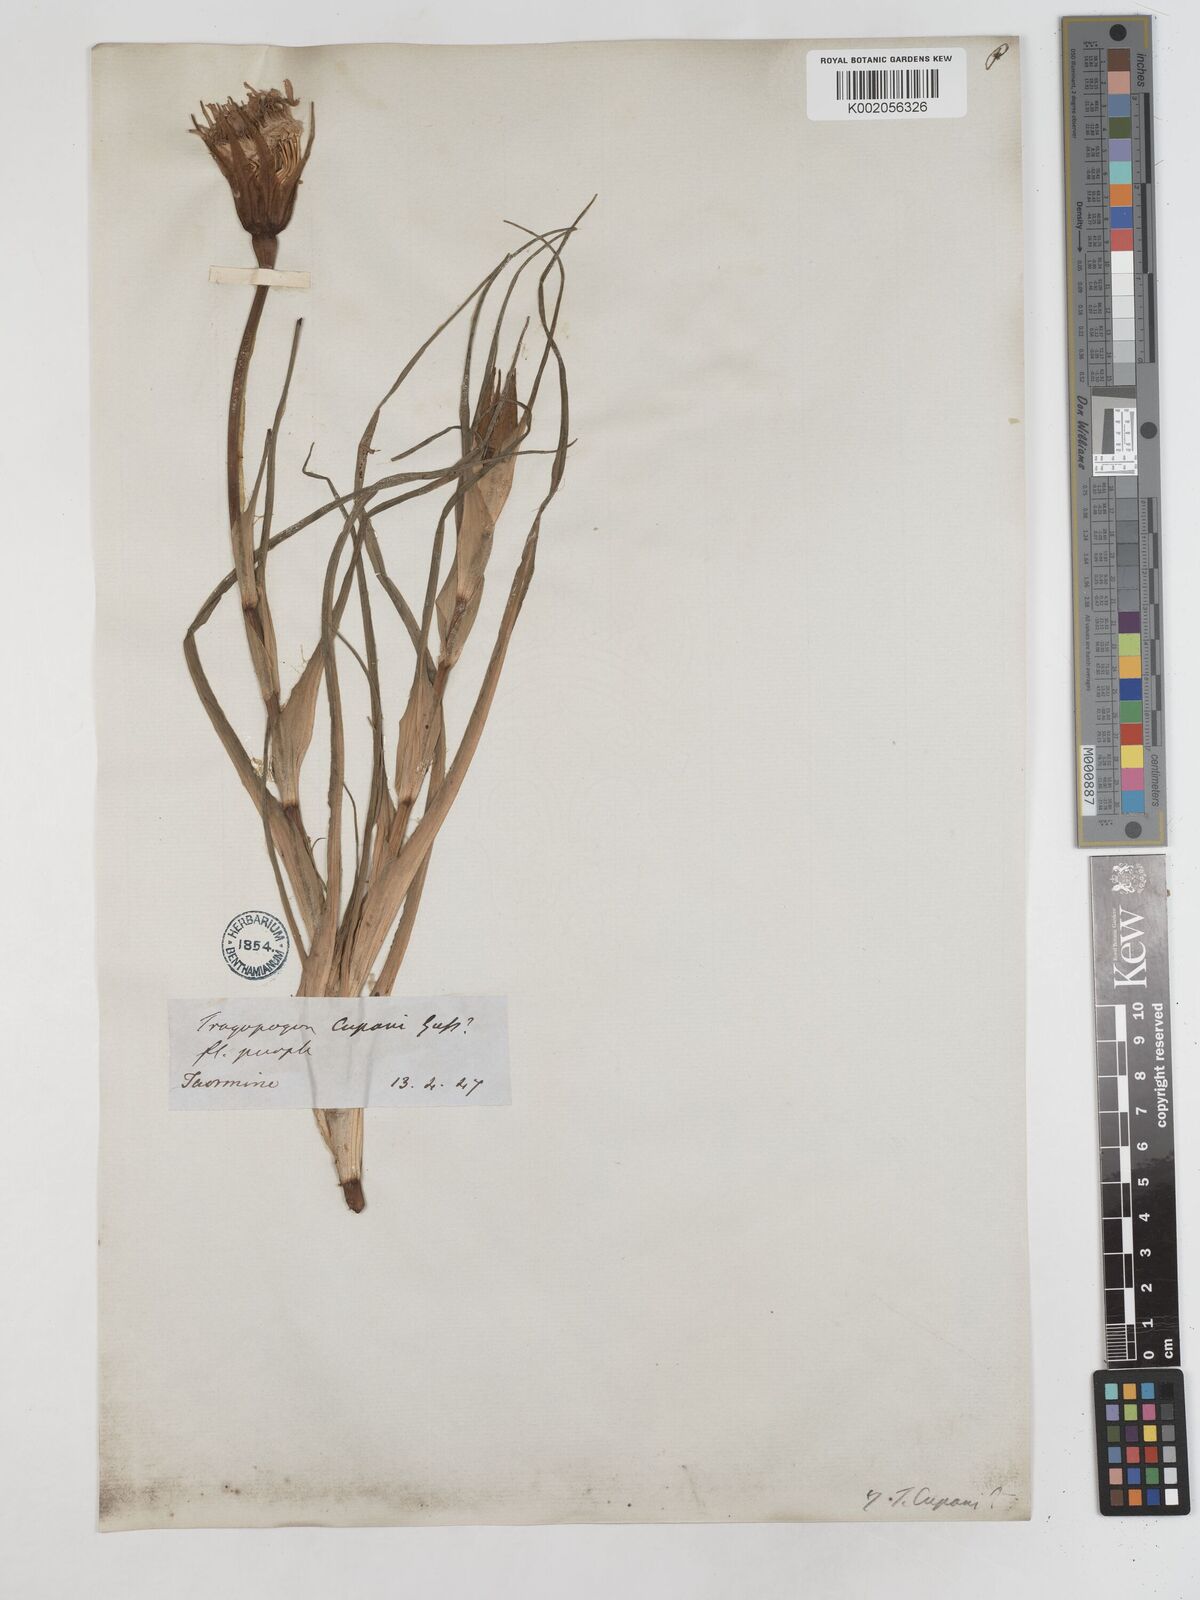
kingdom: Plantae
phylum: Tracheophyta
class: Magnoliopsida
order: Asterales
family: Asteraceae
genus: Tragopogon
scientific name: Tragopogon porrifolius
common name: Salsify
